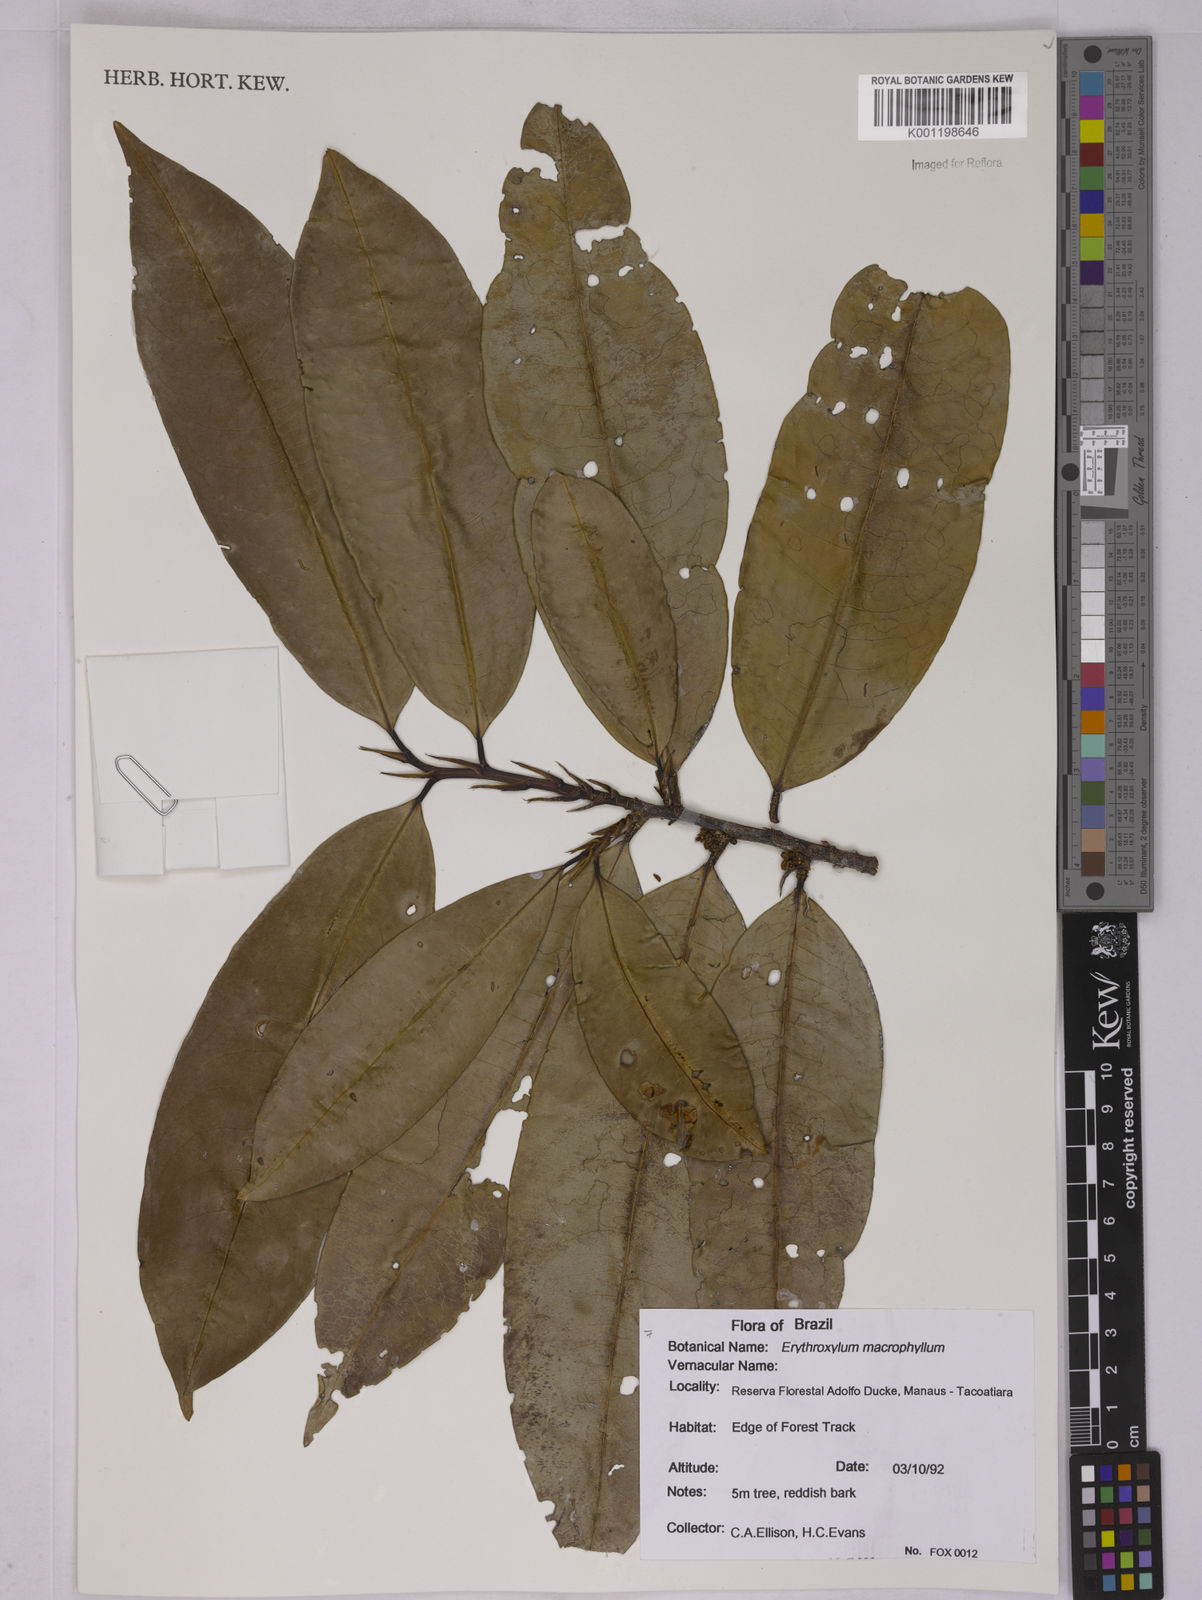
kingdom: Plantae
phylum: Tracheophyta
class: Magnoliopsida
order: Malpighiales
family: Erythroxylaceae
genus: Erythroxylum
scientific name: Erythroxylum macrophyllum
